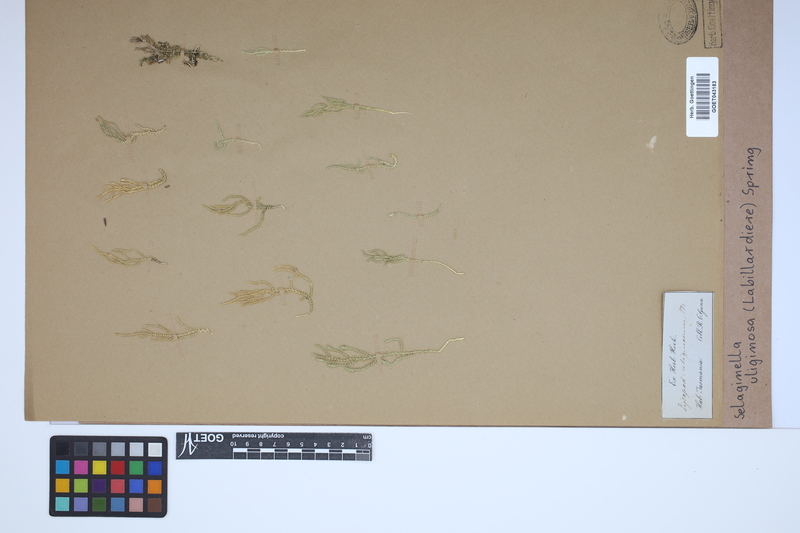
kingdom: Plantae
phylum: Tracheophyta
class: Lycopodiopsida
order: Selaginellales
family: Selaginellaceae
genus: Selaginella
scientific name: Selaginella uliginosa
